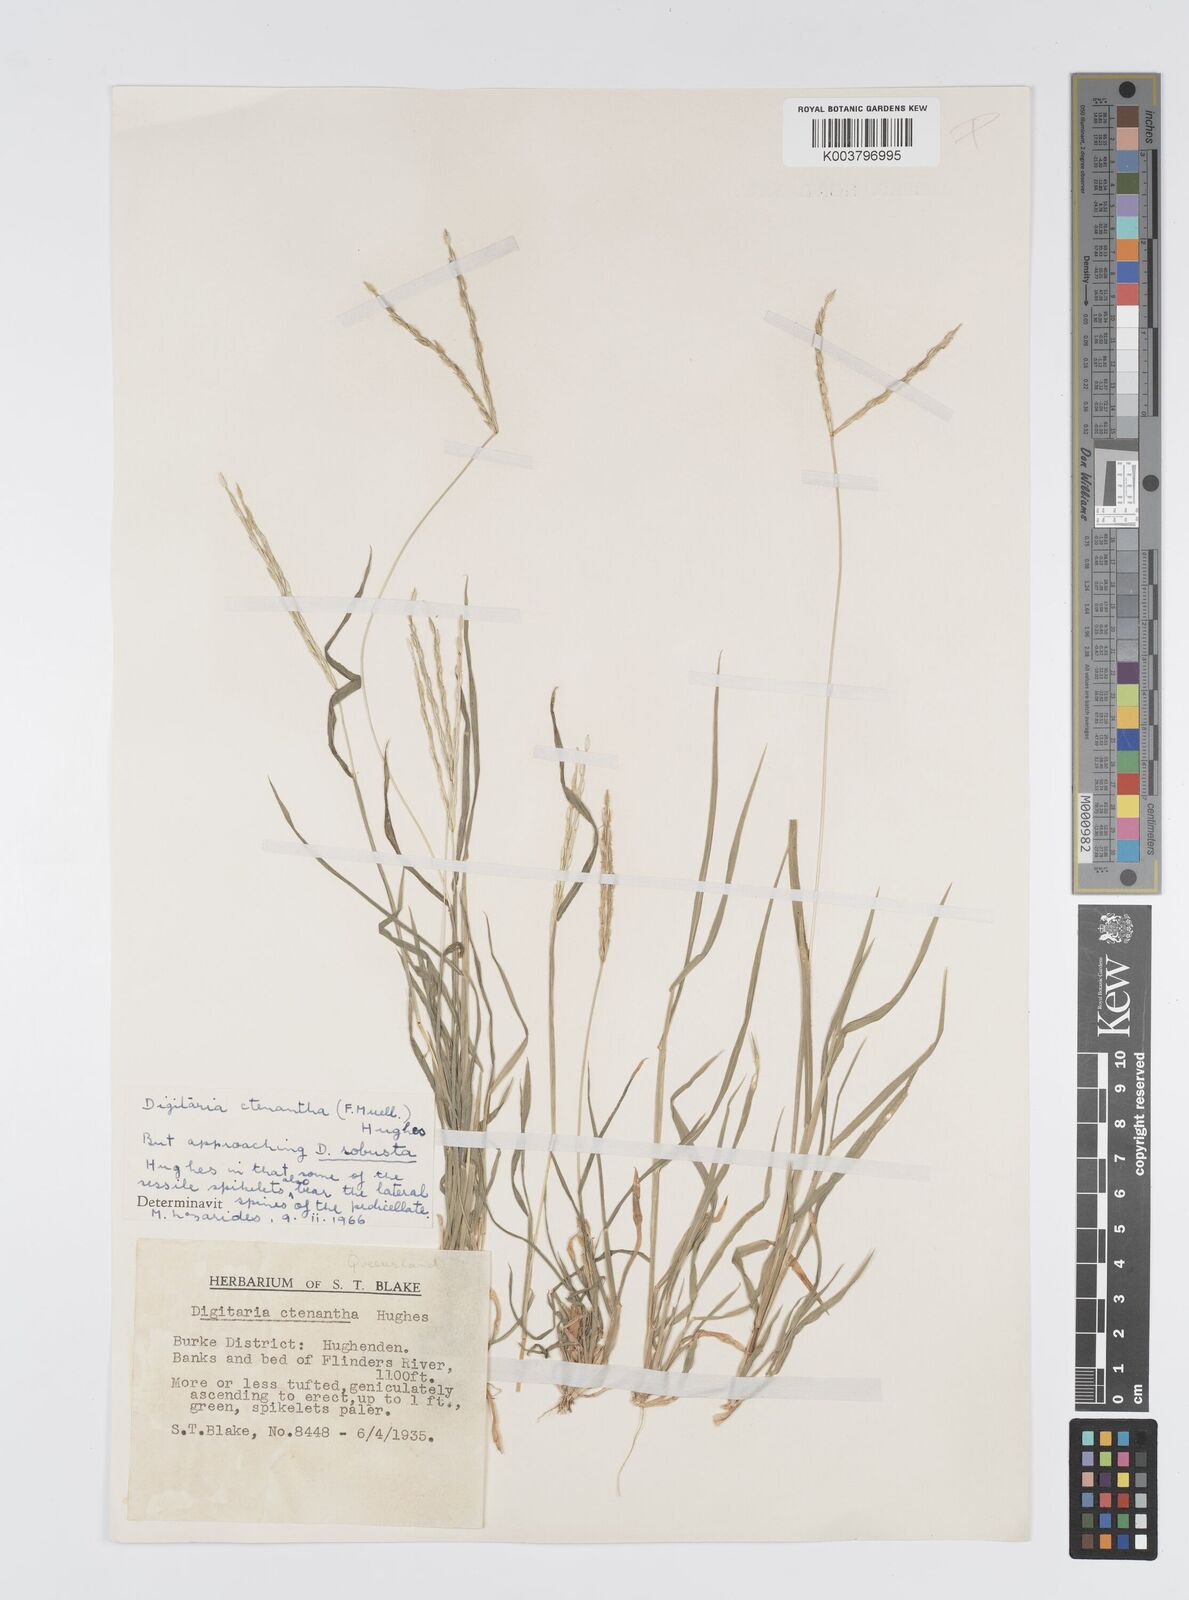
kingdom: Plantae
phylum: Tracheophyta
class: Liliopsida
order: Poales
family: Poaceae
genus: Digitaria
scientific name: Digitaria ctenantha
